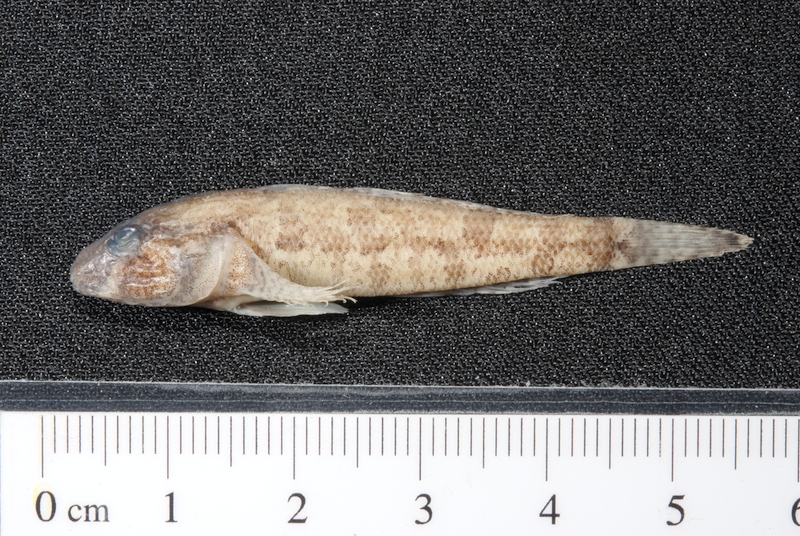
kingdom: Animalia
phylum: Chordata
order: Perciformes
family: Gobiidae
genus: Proterorhinus
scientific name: Proterorhinus semilunaris
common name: Western tubenose goby
